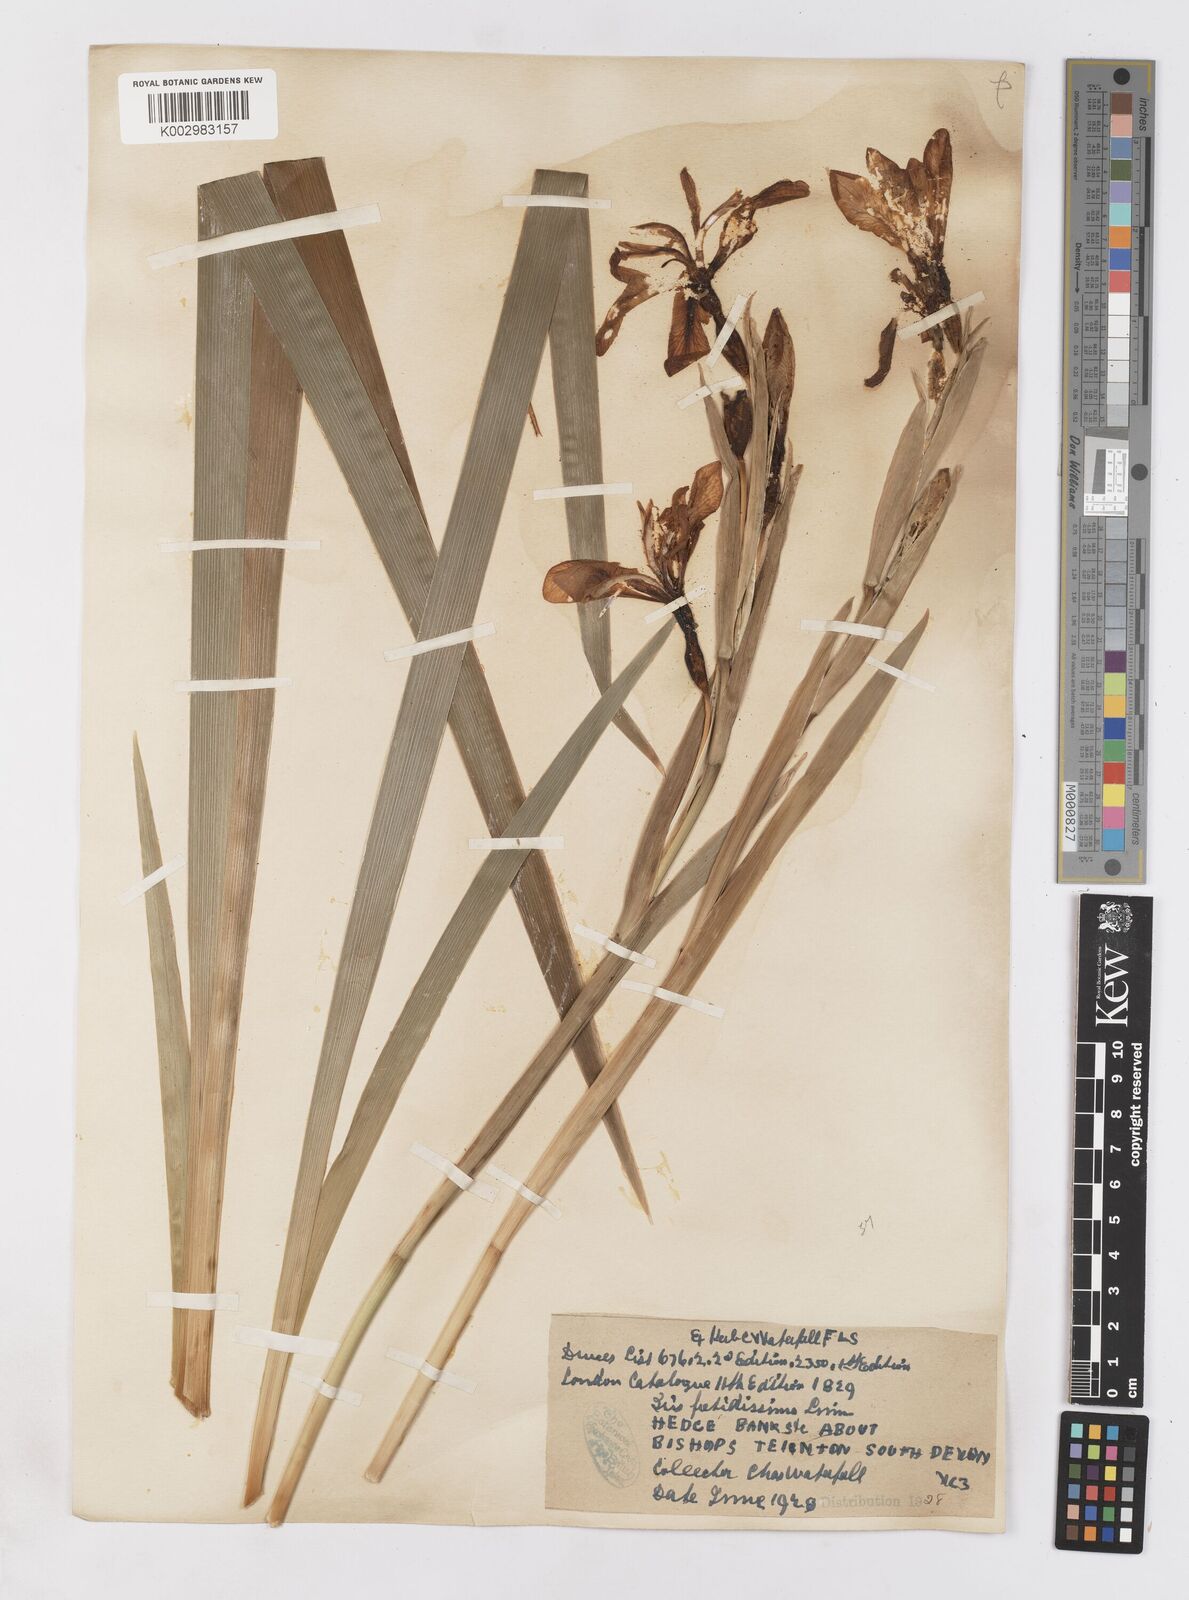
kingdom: Plantae
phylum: Tracheophyta
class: Liliopsida
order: Asparagales
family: Iridaceae
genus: Iris
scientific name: Iris foetidissima
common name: Stinking iris
